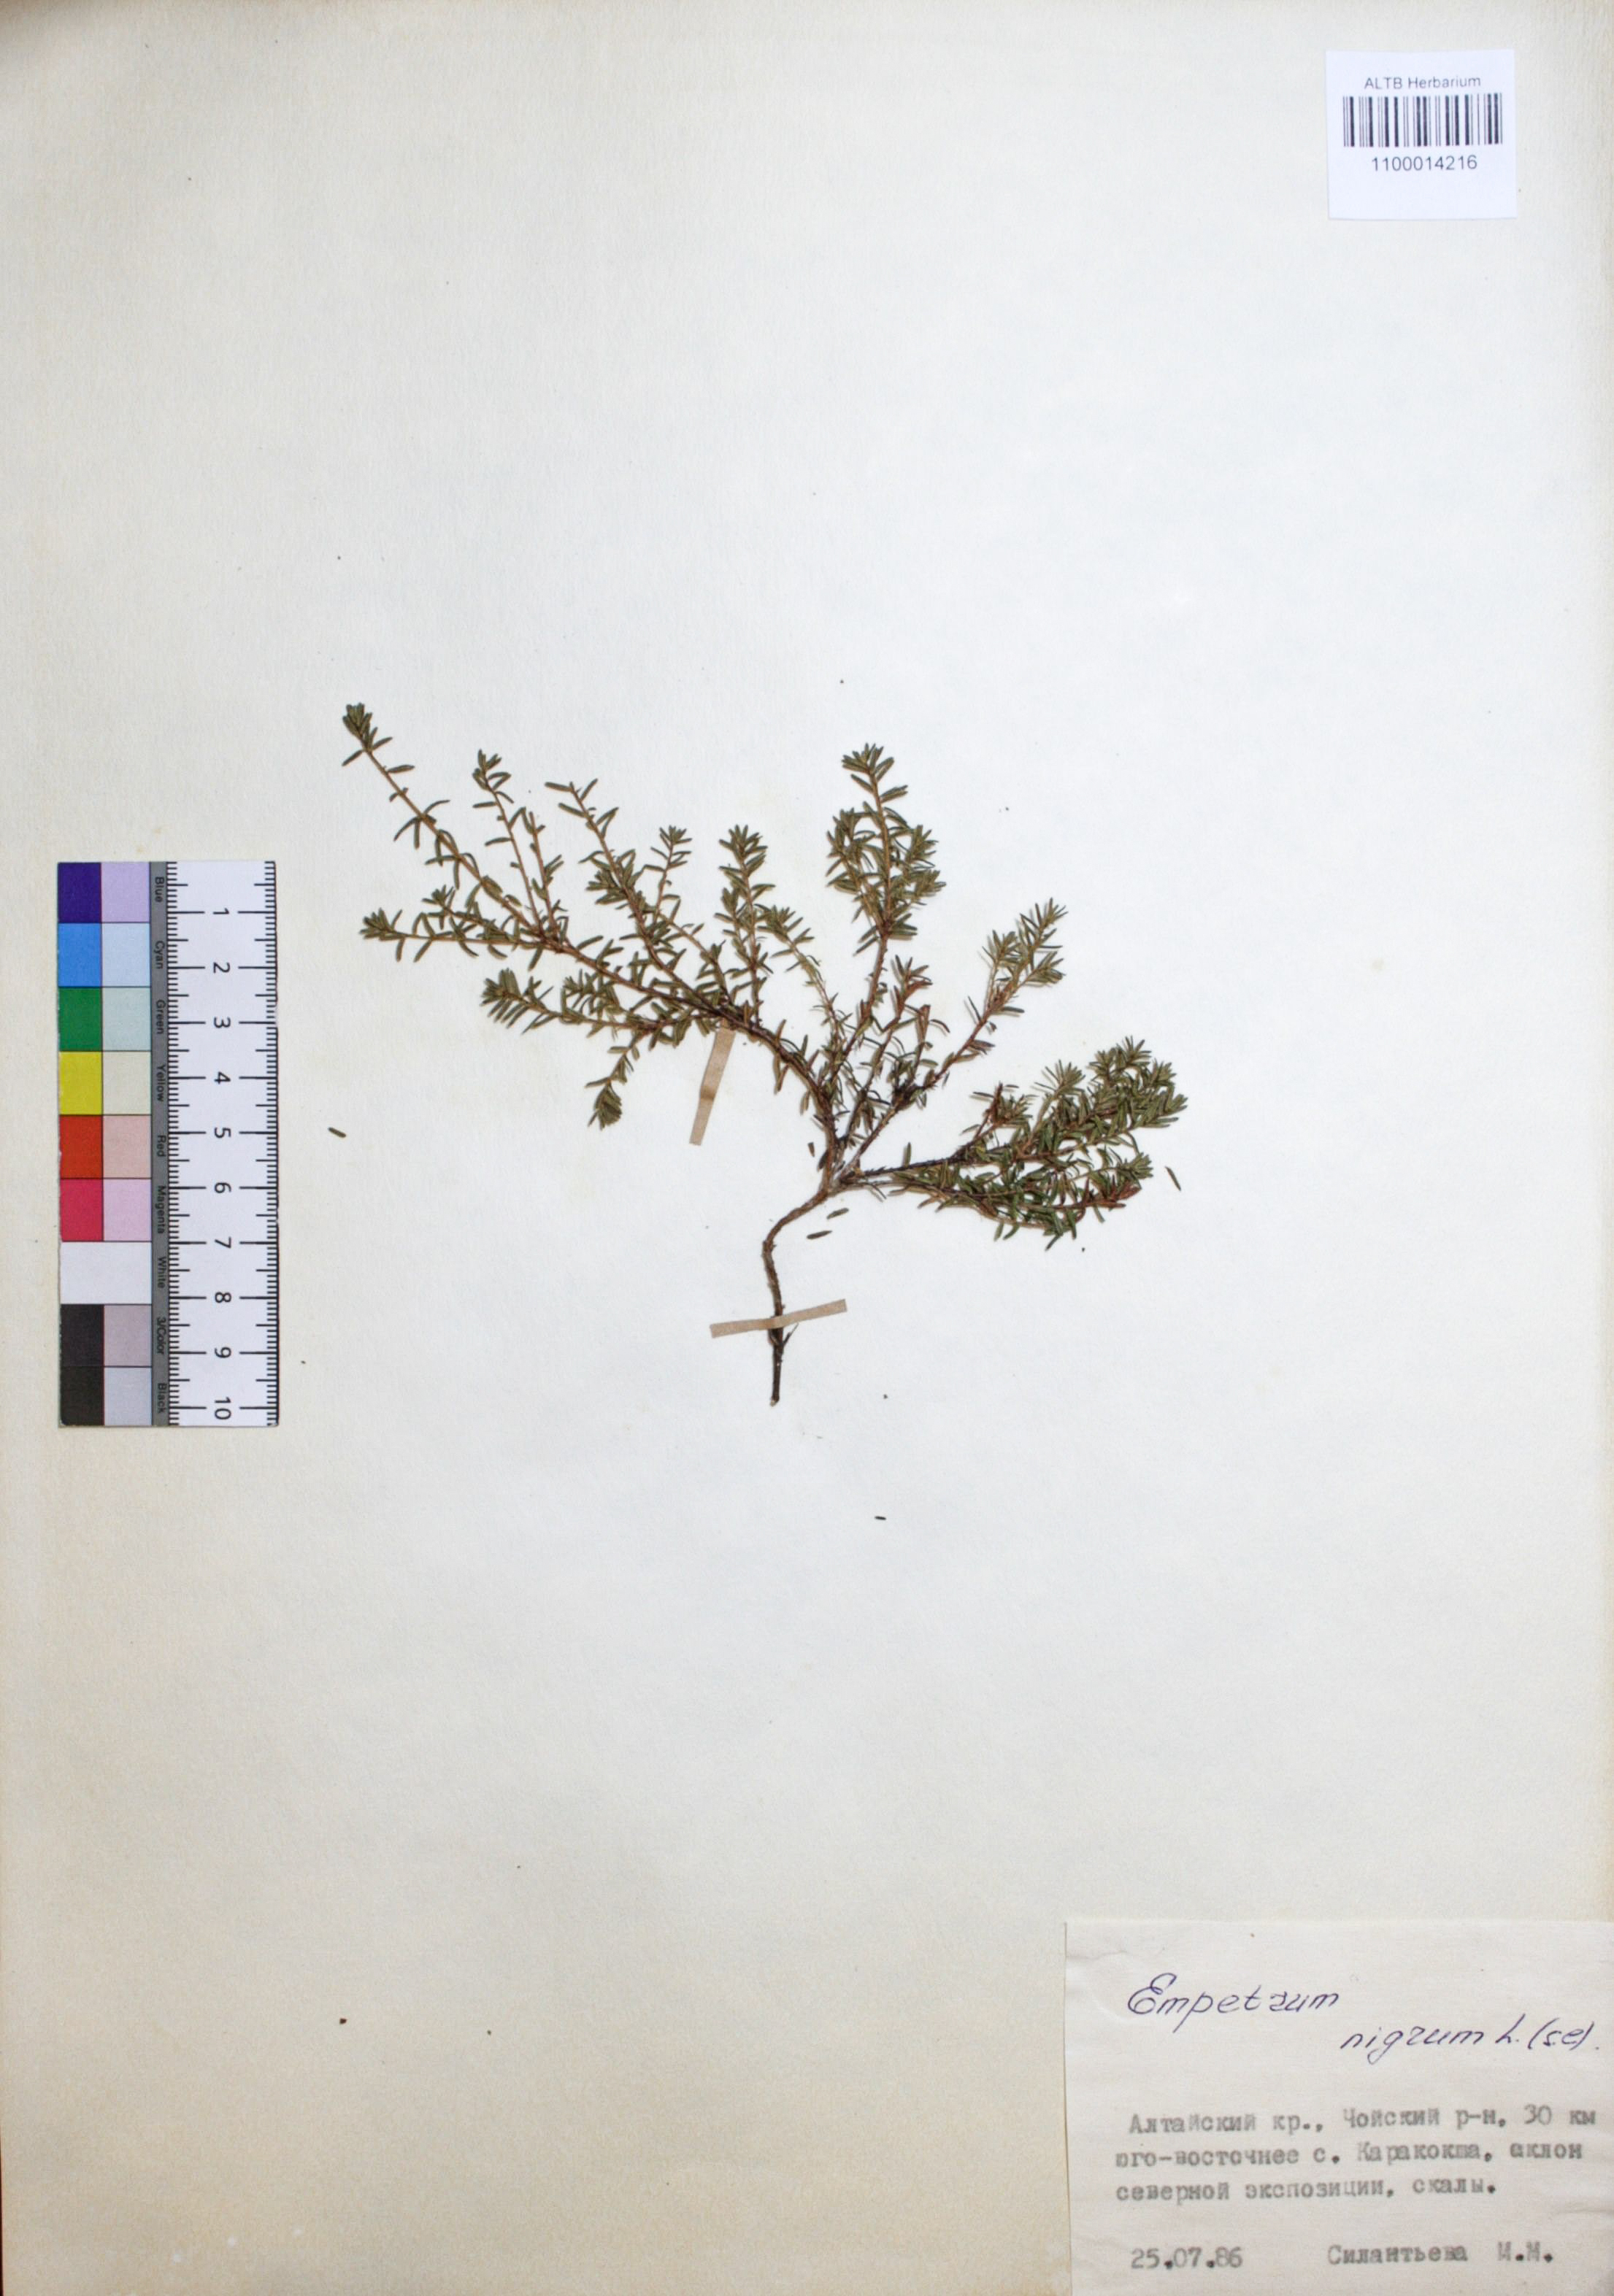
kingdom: Plantae
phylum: Tracheophyta
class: Magnoliopsida
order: Ericales
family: Ericaceae
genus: Empetrum
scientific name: Empetrum nigrum
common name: Black crowberry
